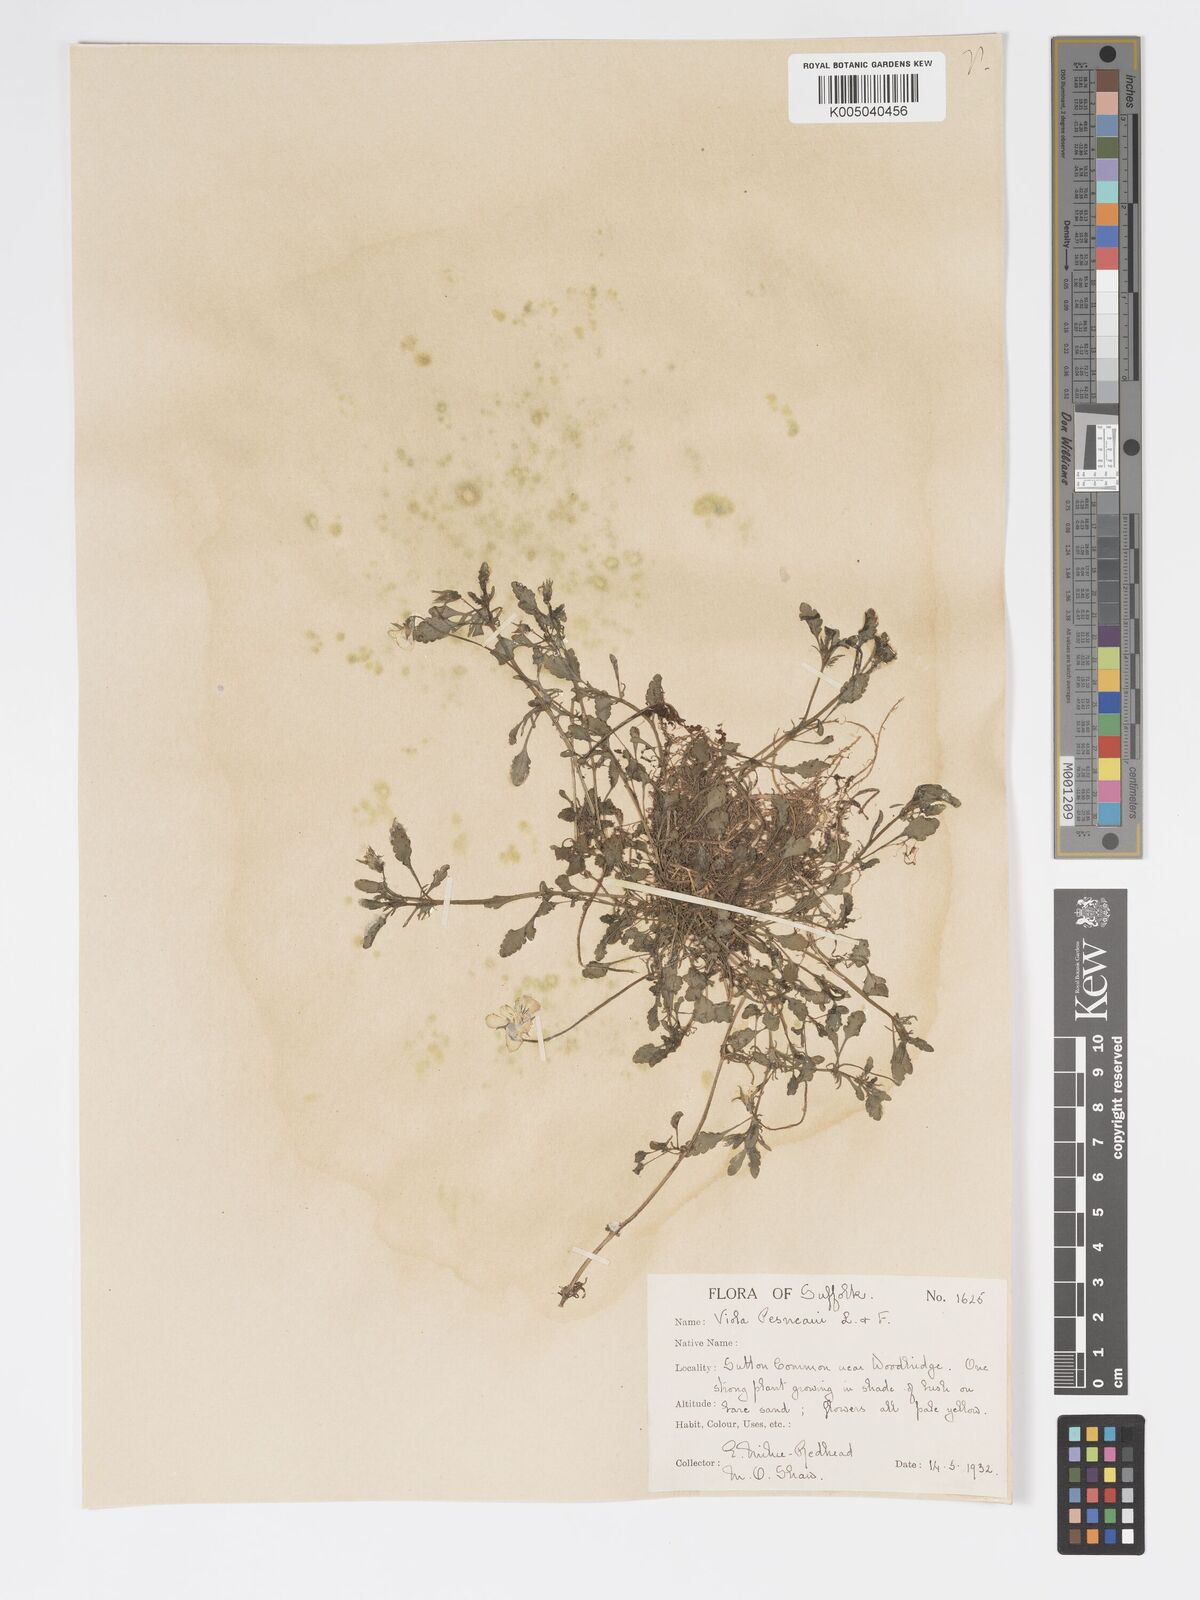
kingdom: Plantae
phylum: Tracheophyta
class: Magnoliopsida
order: Malpighiales
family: Violaceae
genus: Viola
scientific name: Viola arvensis
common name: Field pansy
